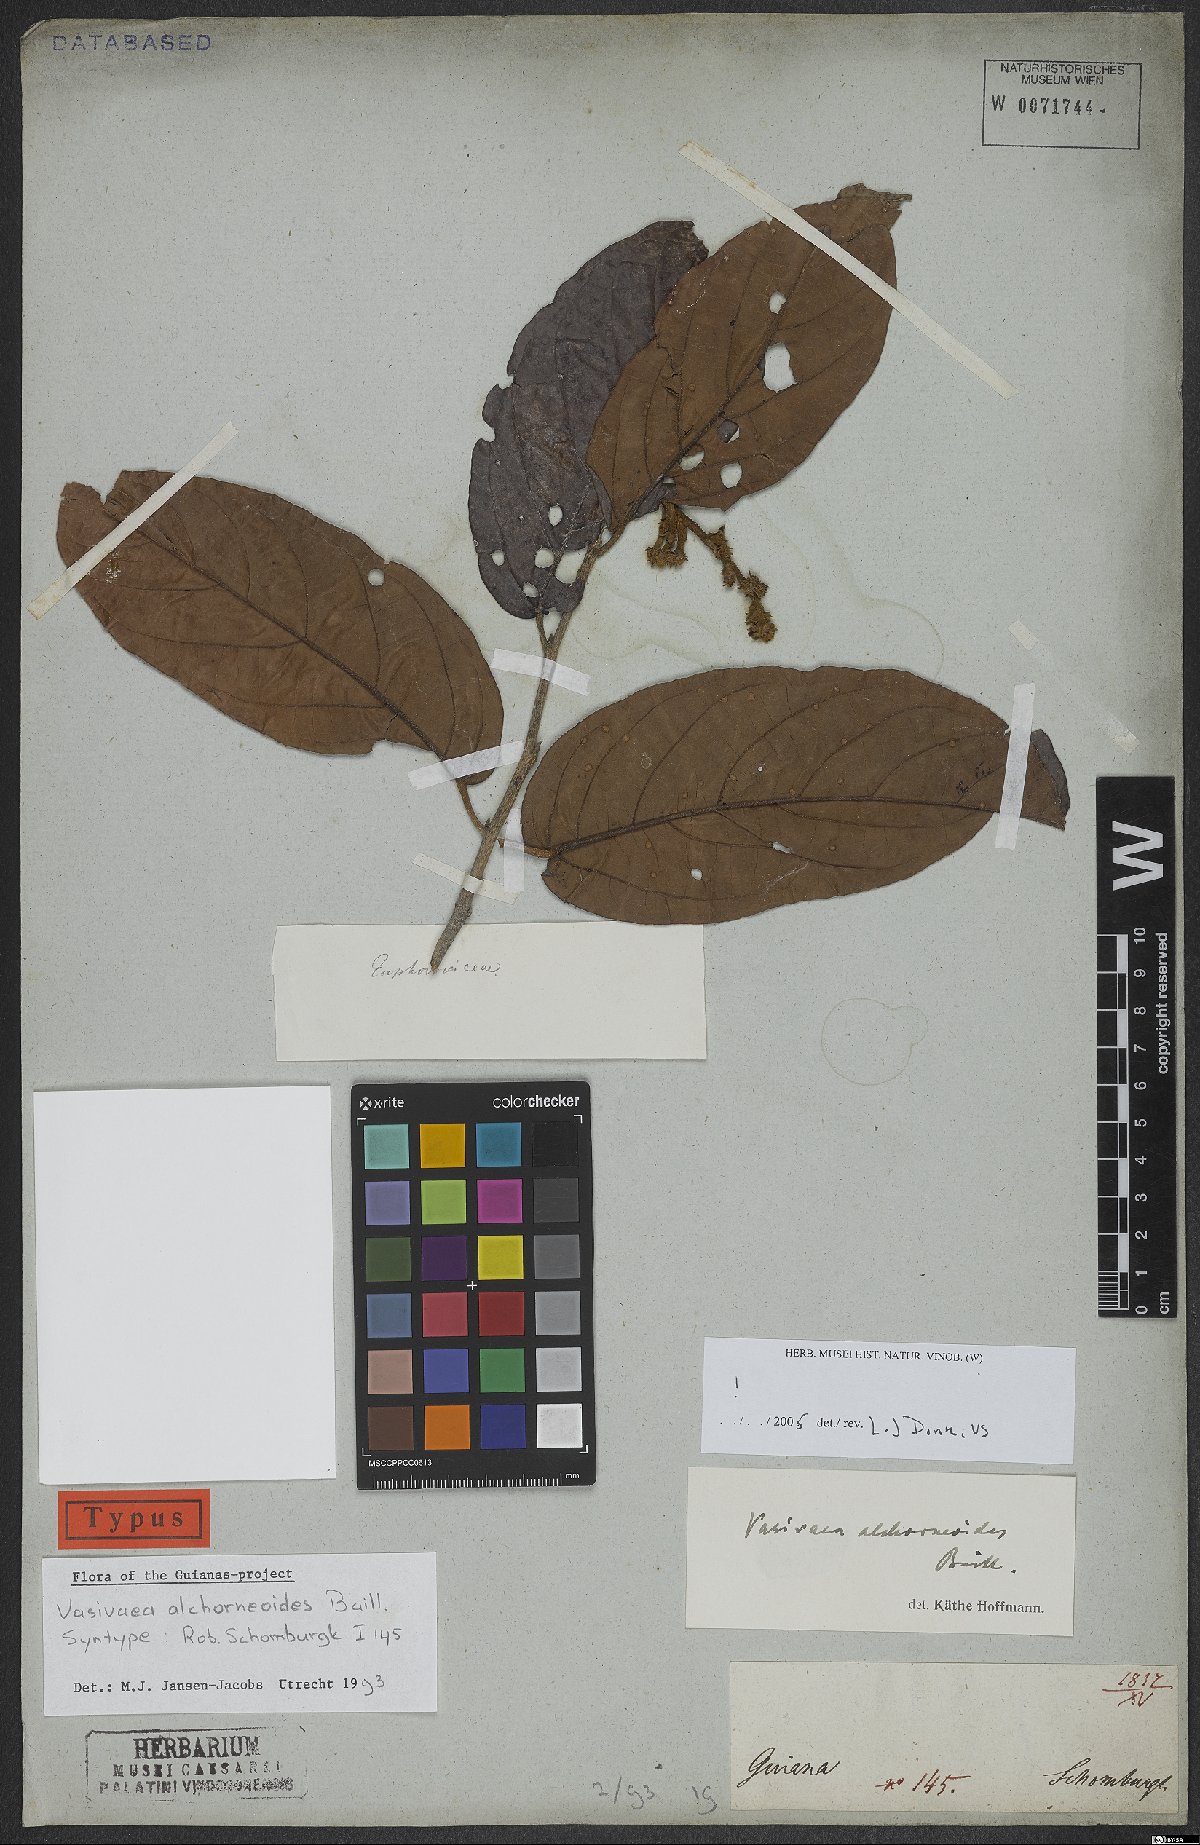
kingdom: Plantae
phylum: Tracheophyta
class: Magnoliopsida
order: Malvales
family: Malvaceae
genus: Vasivaea
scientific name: Vasivaea alchorneoides
